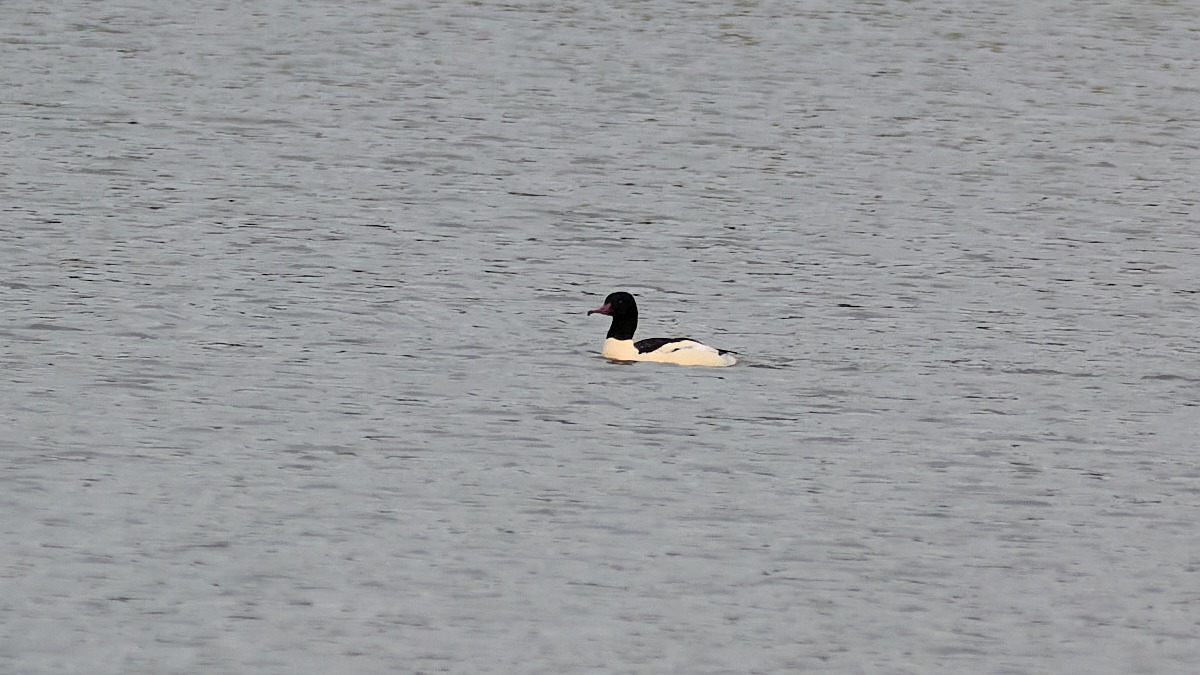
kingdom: Animalia
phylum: Chordata
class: Aves
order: Anseriformes
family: Anatidae
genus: Mergus
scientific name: Mergus merganser
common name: Stor skallesluger
